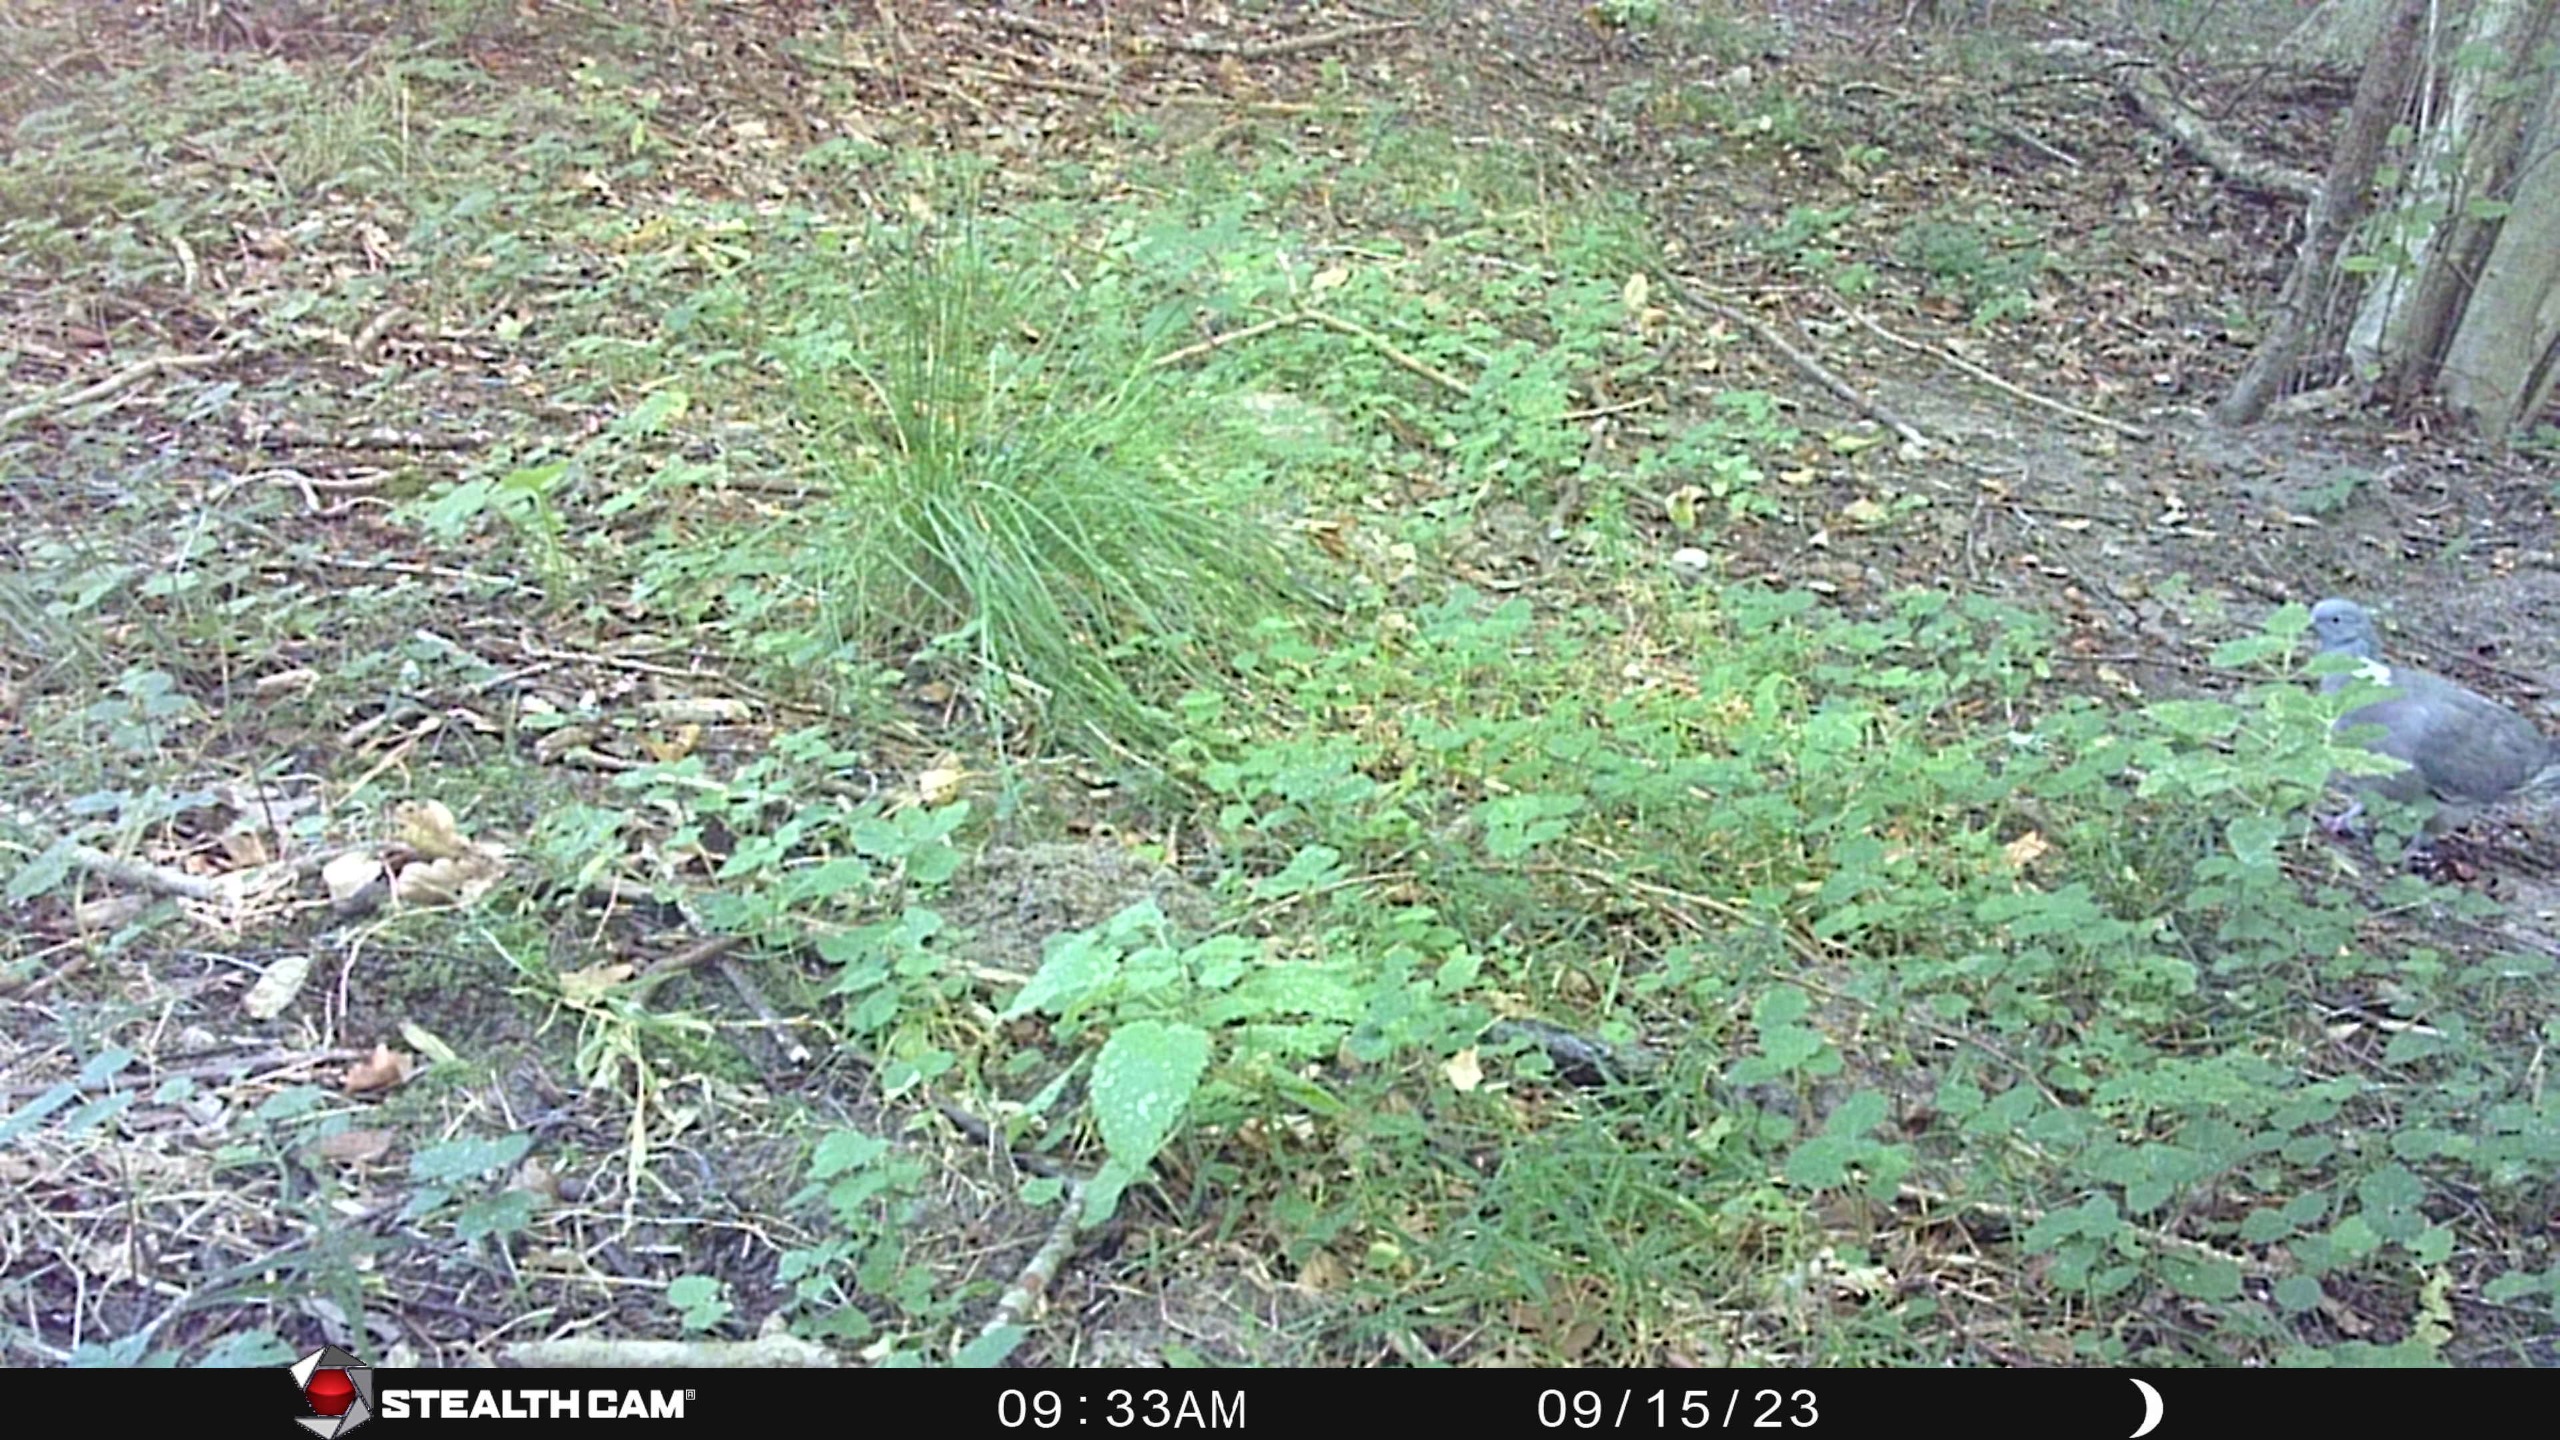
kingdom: Animalia
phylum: Chordata
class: Aves
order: Columbiformes
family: Columbidae
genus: Columba
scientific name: Columba palumbus
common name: Ringdue
